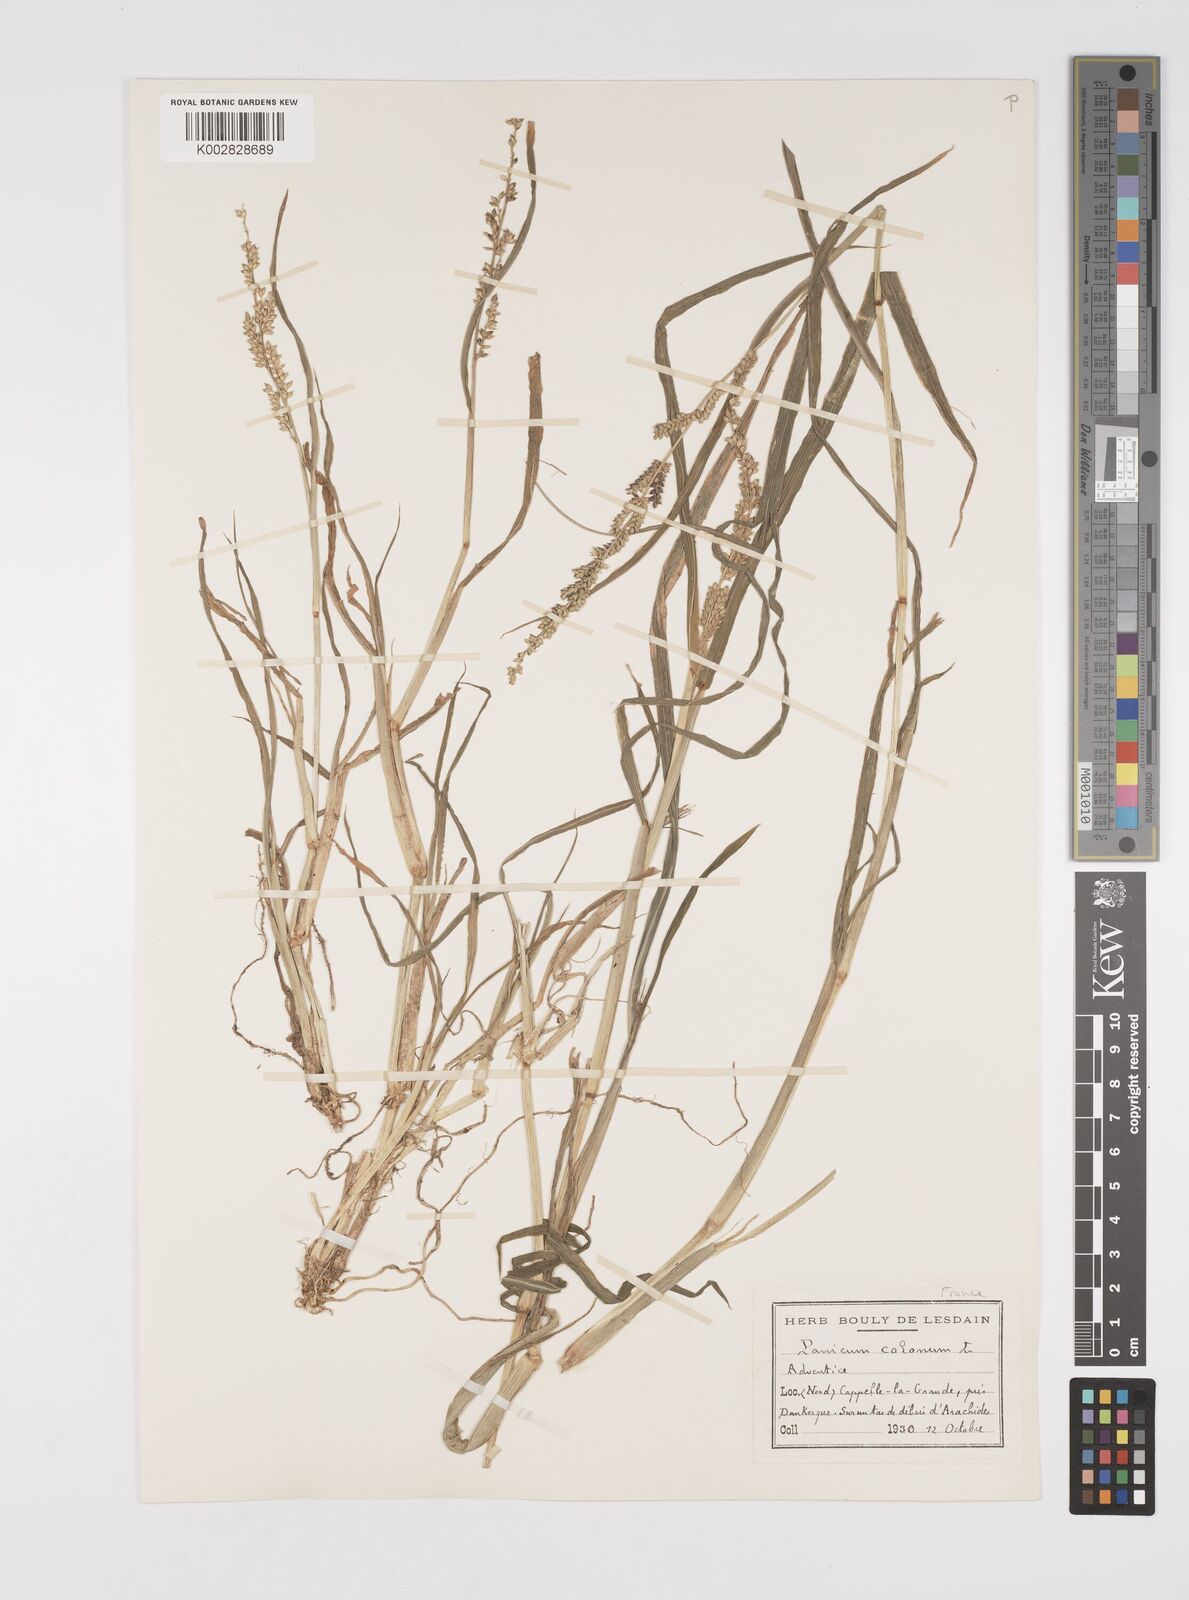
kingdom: Plantae
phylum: Tracheophyta
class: Liliopsida
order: Poales
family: Poaceae
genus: Echinochloa
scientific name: Echinochloa colonum
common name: Jungle rice
